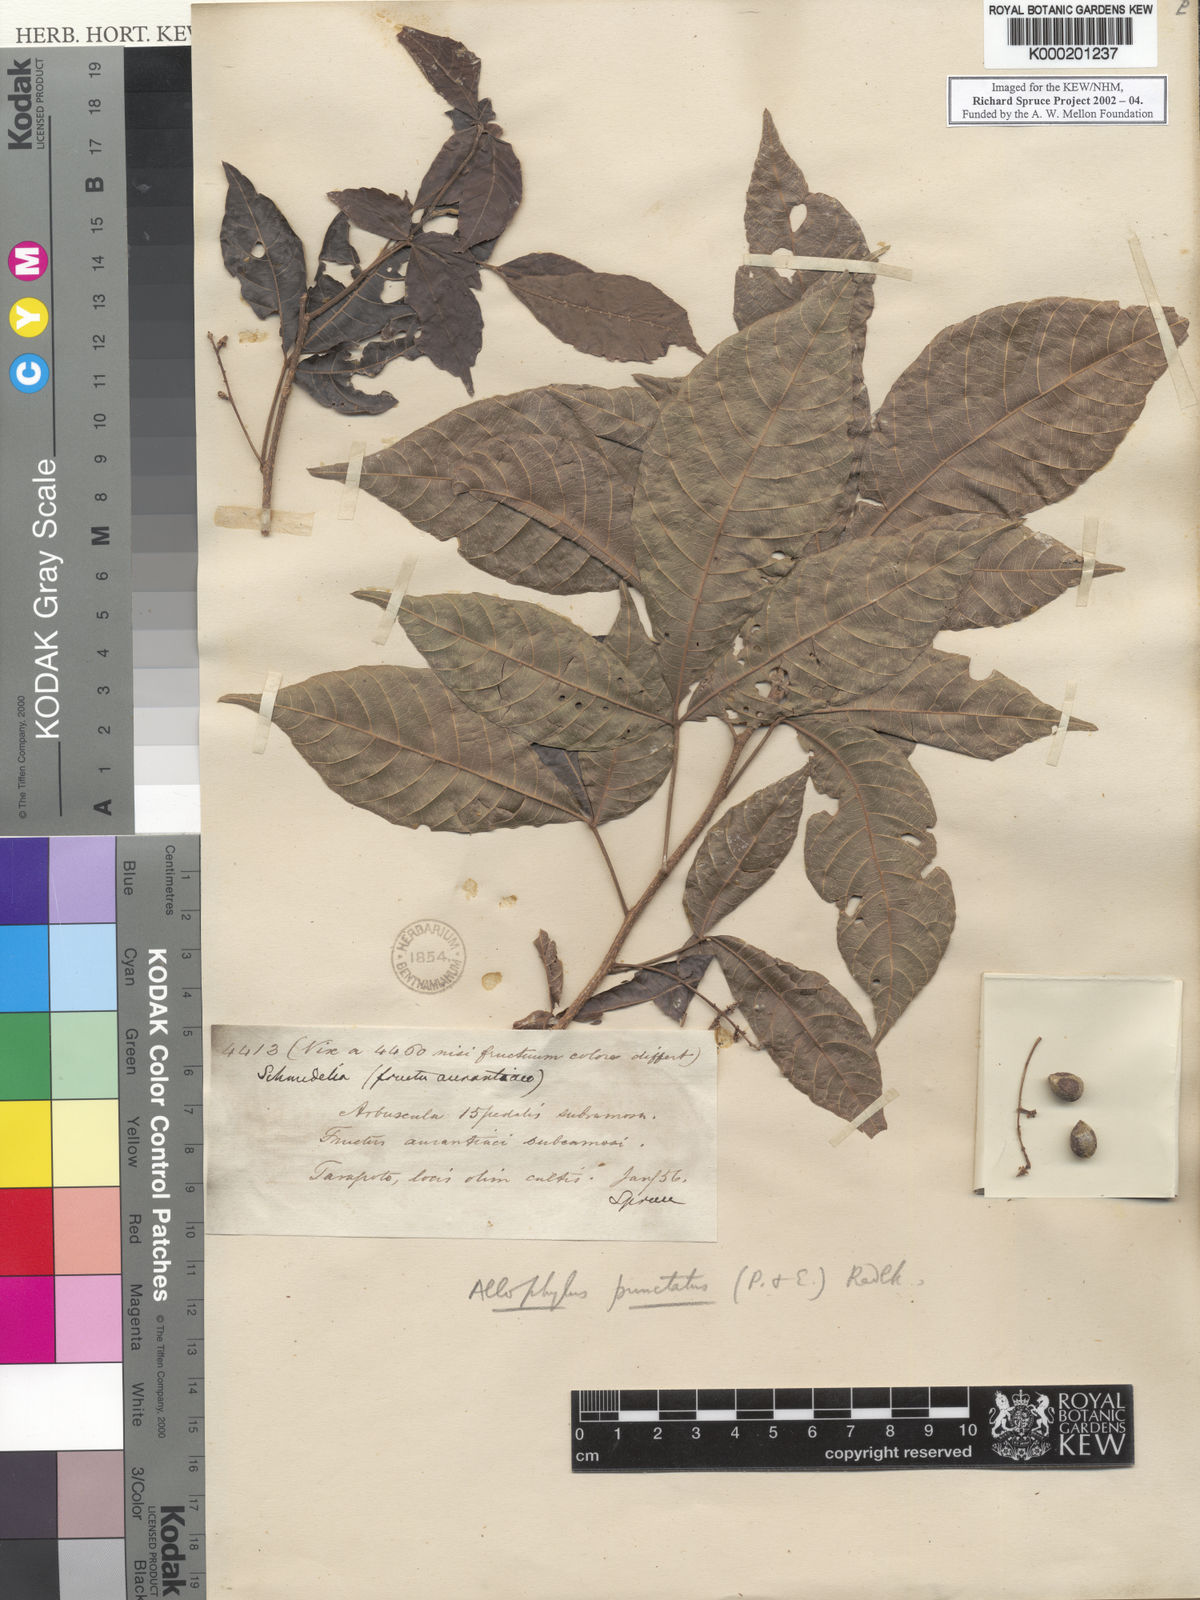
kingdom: Plantae
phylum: Tracheophyta
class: Magnoliopsida
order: Sapindales
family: Sapindaceae
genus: Allophylus
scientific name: Allophylus punctatus
